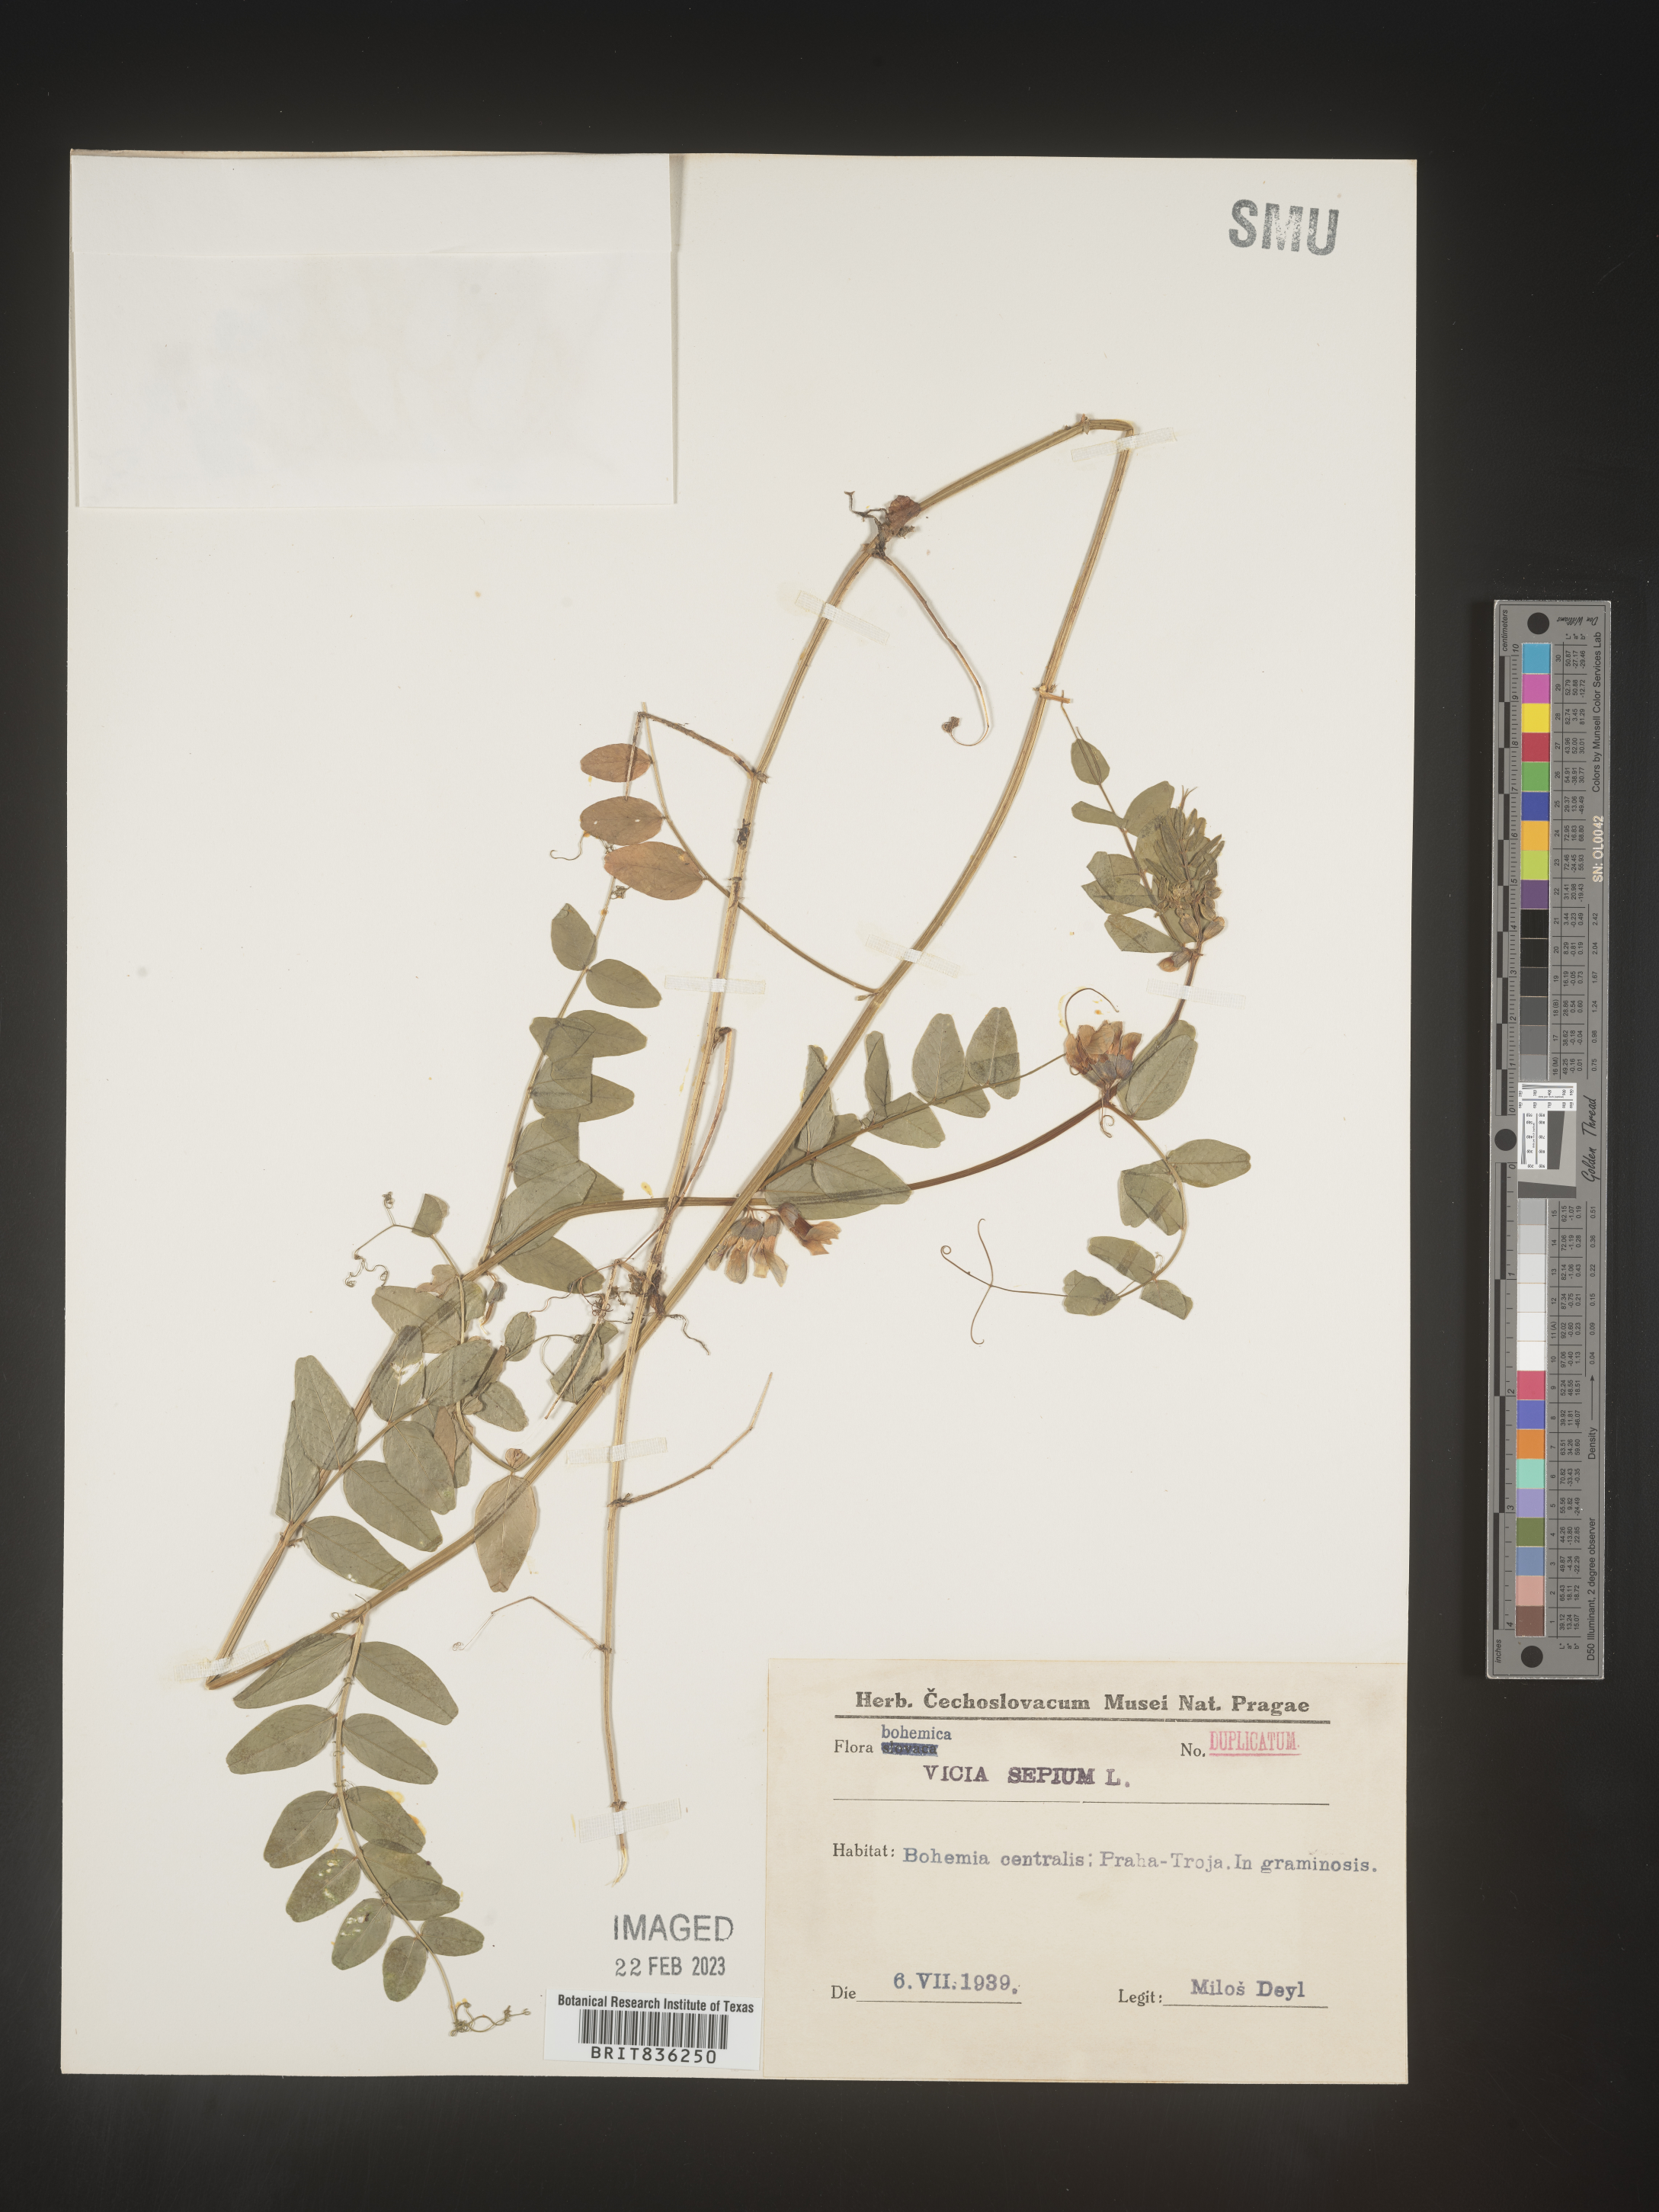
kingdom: Plantae
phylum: Tracheophyta
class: Magnoliopsida
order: Fabales
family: Fabaceae
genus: Vicia
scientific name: Vicia
